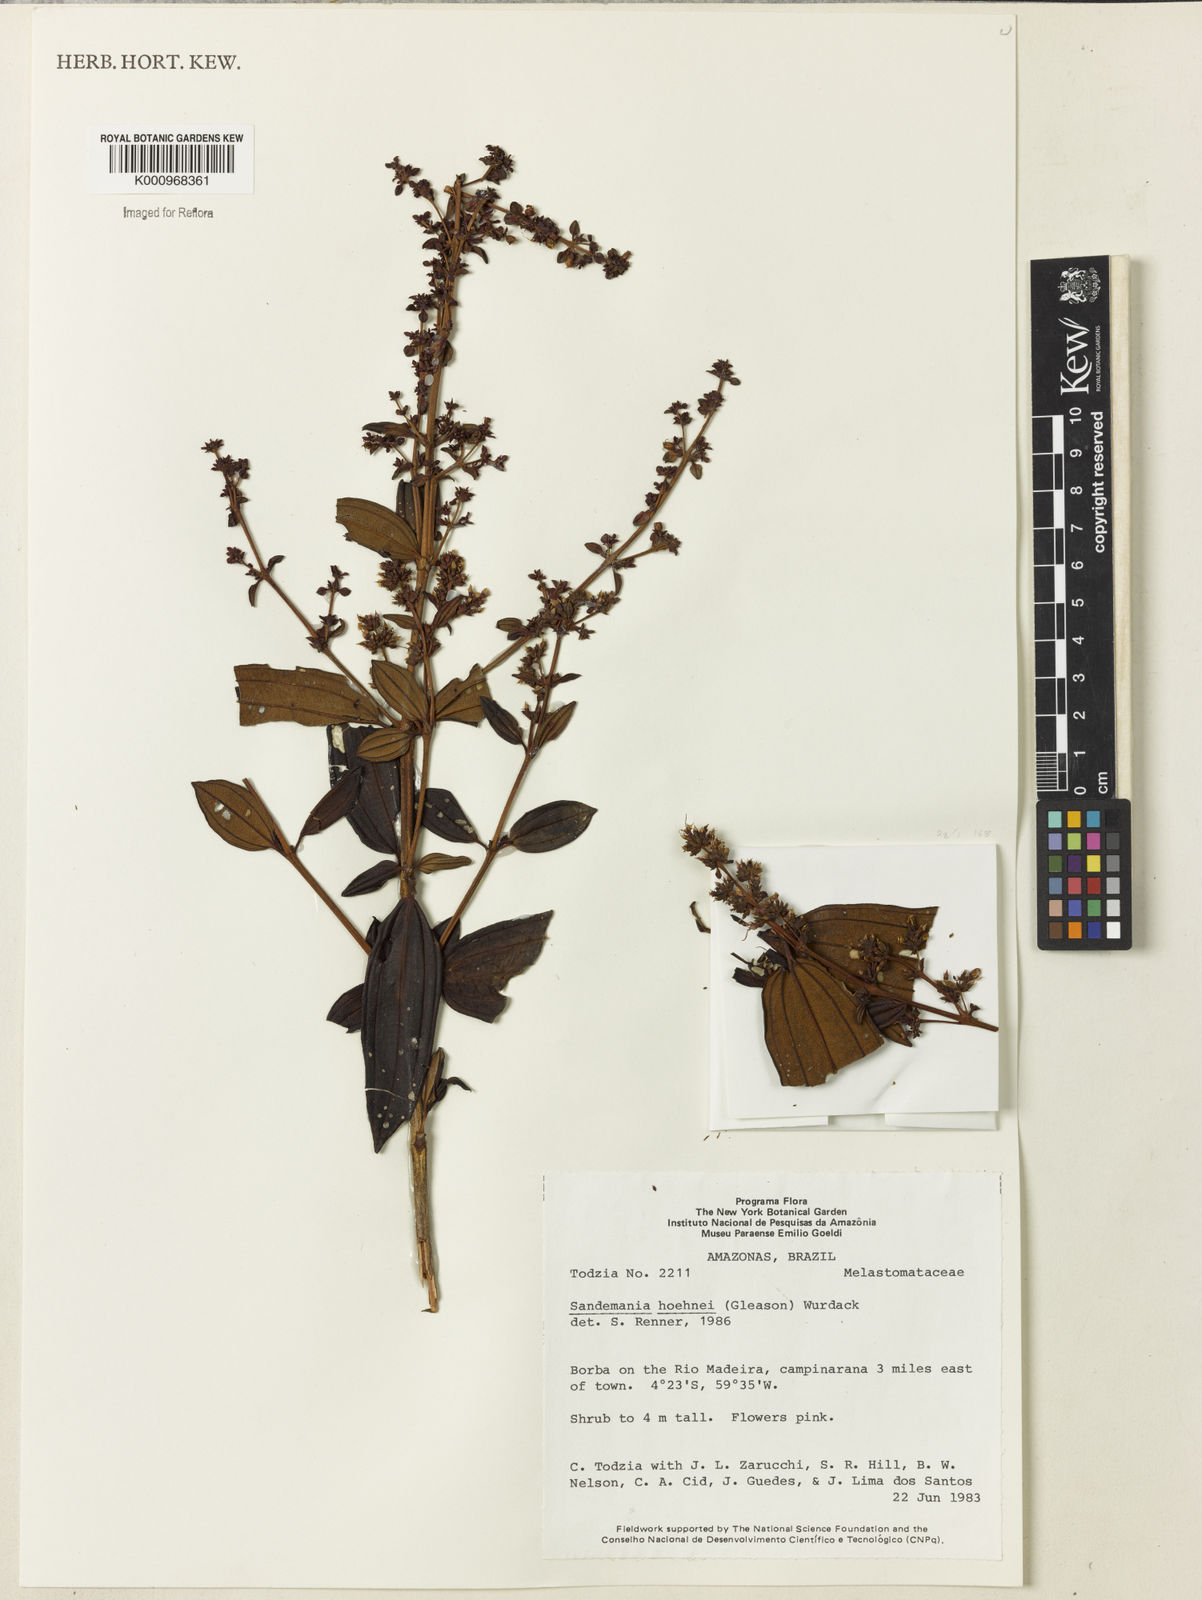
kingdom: Plantae
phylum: Tracheophyta
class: Magnoliopsida
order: Myrtales
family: Melastomataceae
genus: Sandemania
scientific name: Sandemania hoehnei
